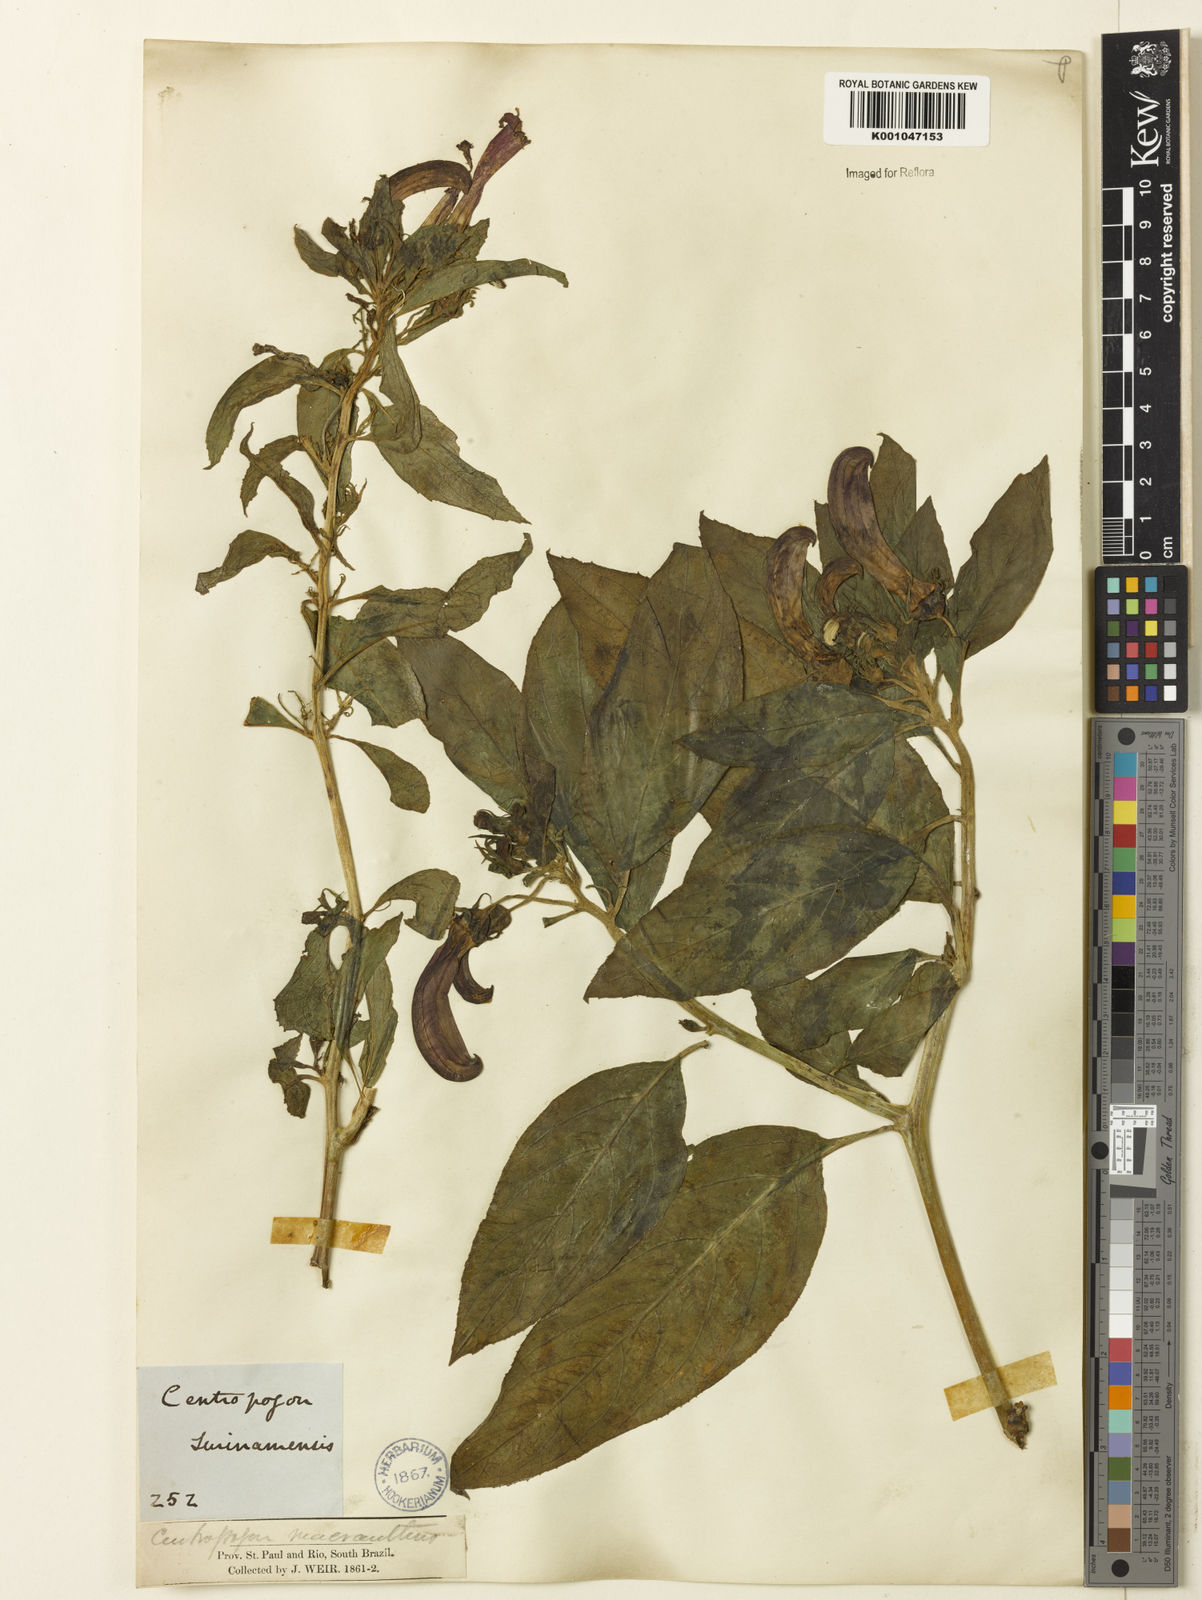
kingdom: Plantae
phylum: Tracheophyta
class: Magnoliopsida
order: Asterales
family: Campanulaceae
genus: Centropogon
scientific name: Centropogon cornutus
